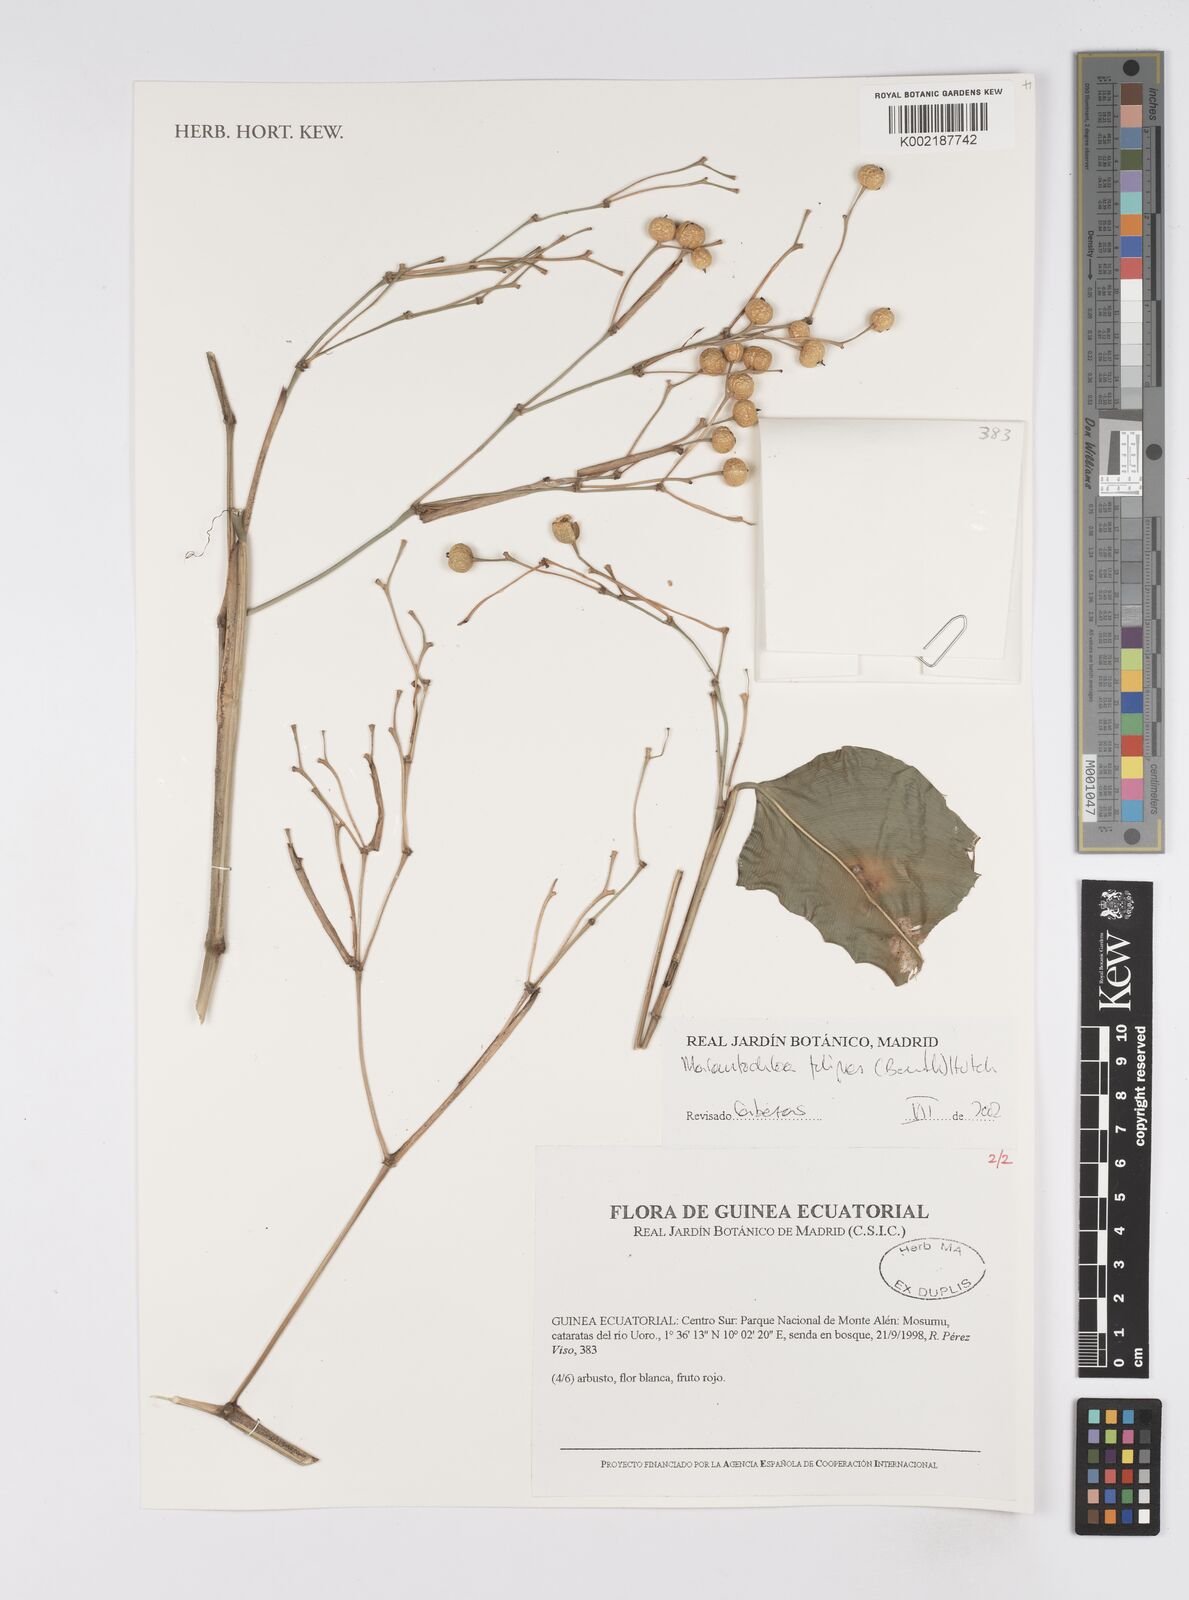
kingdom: Plantae
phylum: Tracheophyta
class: Liliopsida
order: Zingiberales
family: Marantaceae
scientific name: Marantaceae
